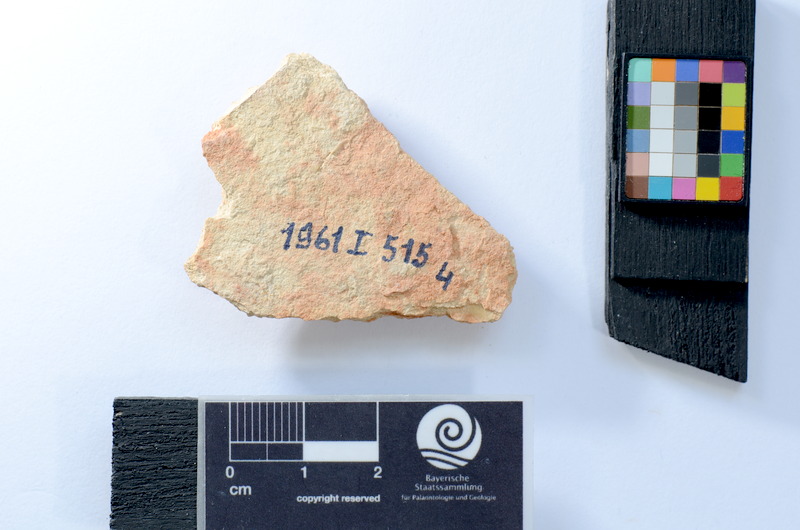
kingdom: Animalia
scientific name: Animalia
